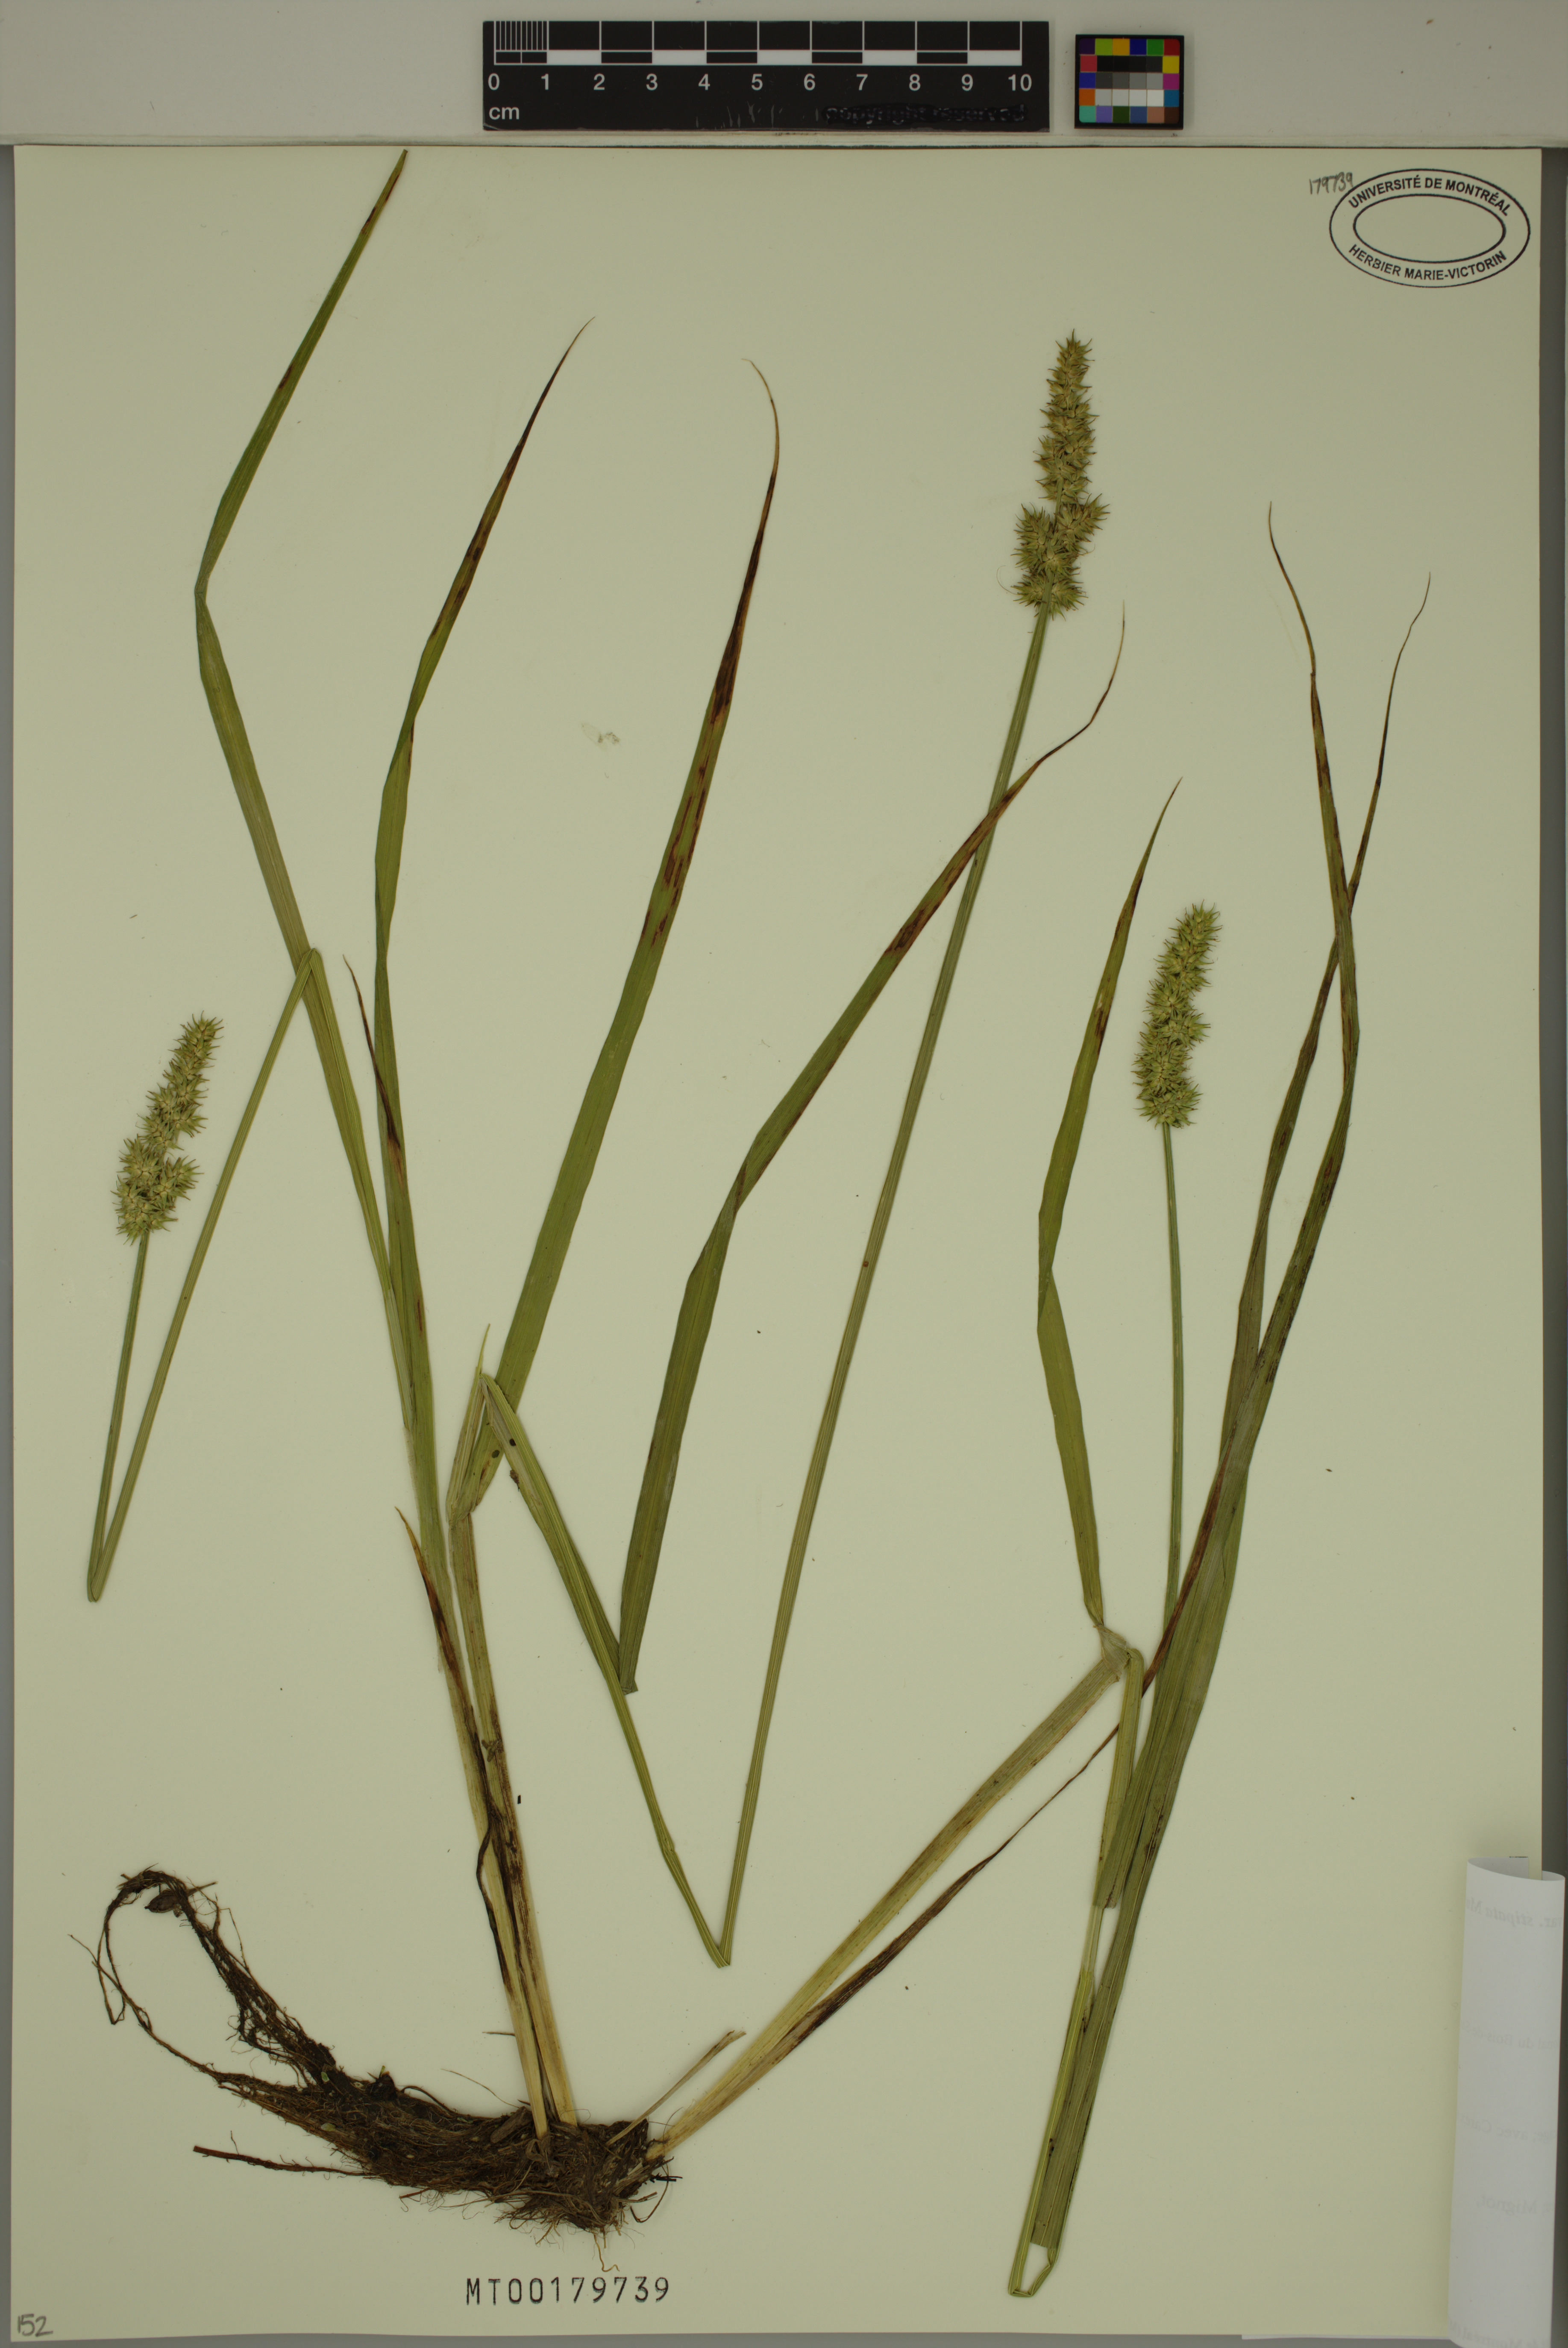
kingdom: Plantae
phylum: Tracheophyta
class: Liliopsida
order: Poales
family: Cyperaceae
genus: Carex
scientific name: Carex stipata
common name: Awl-fruited sedge
